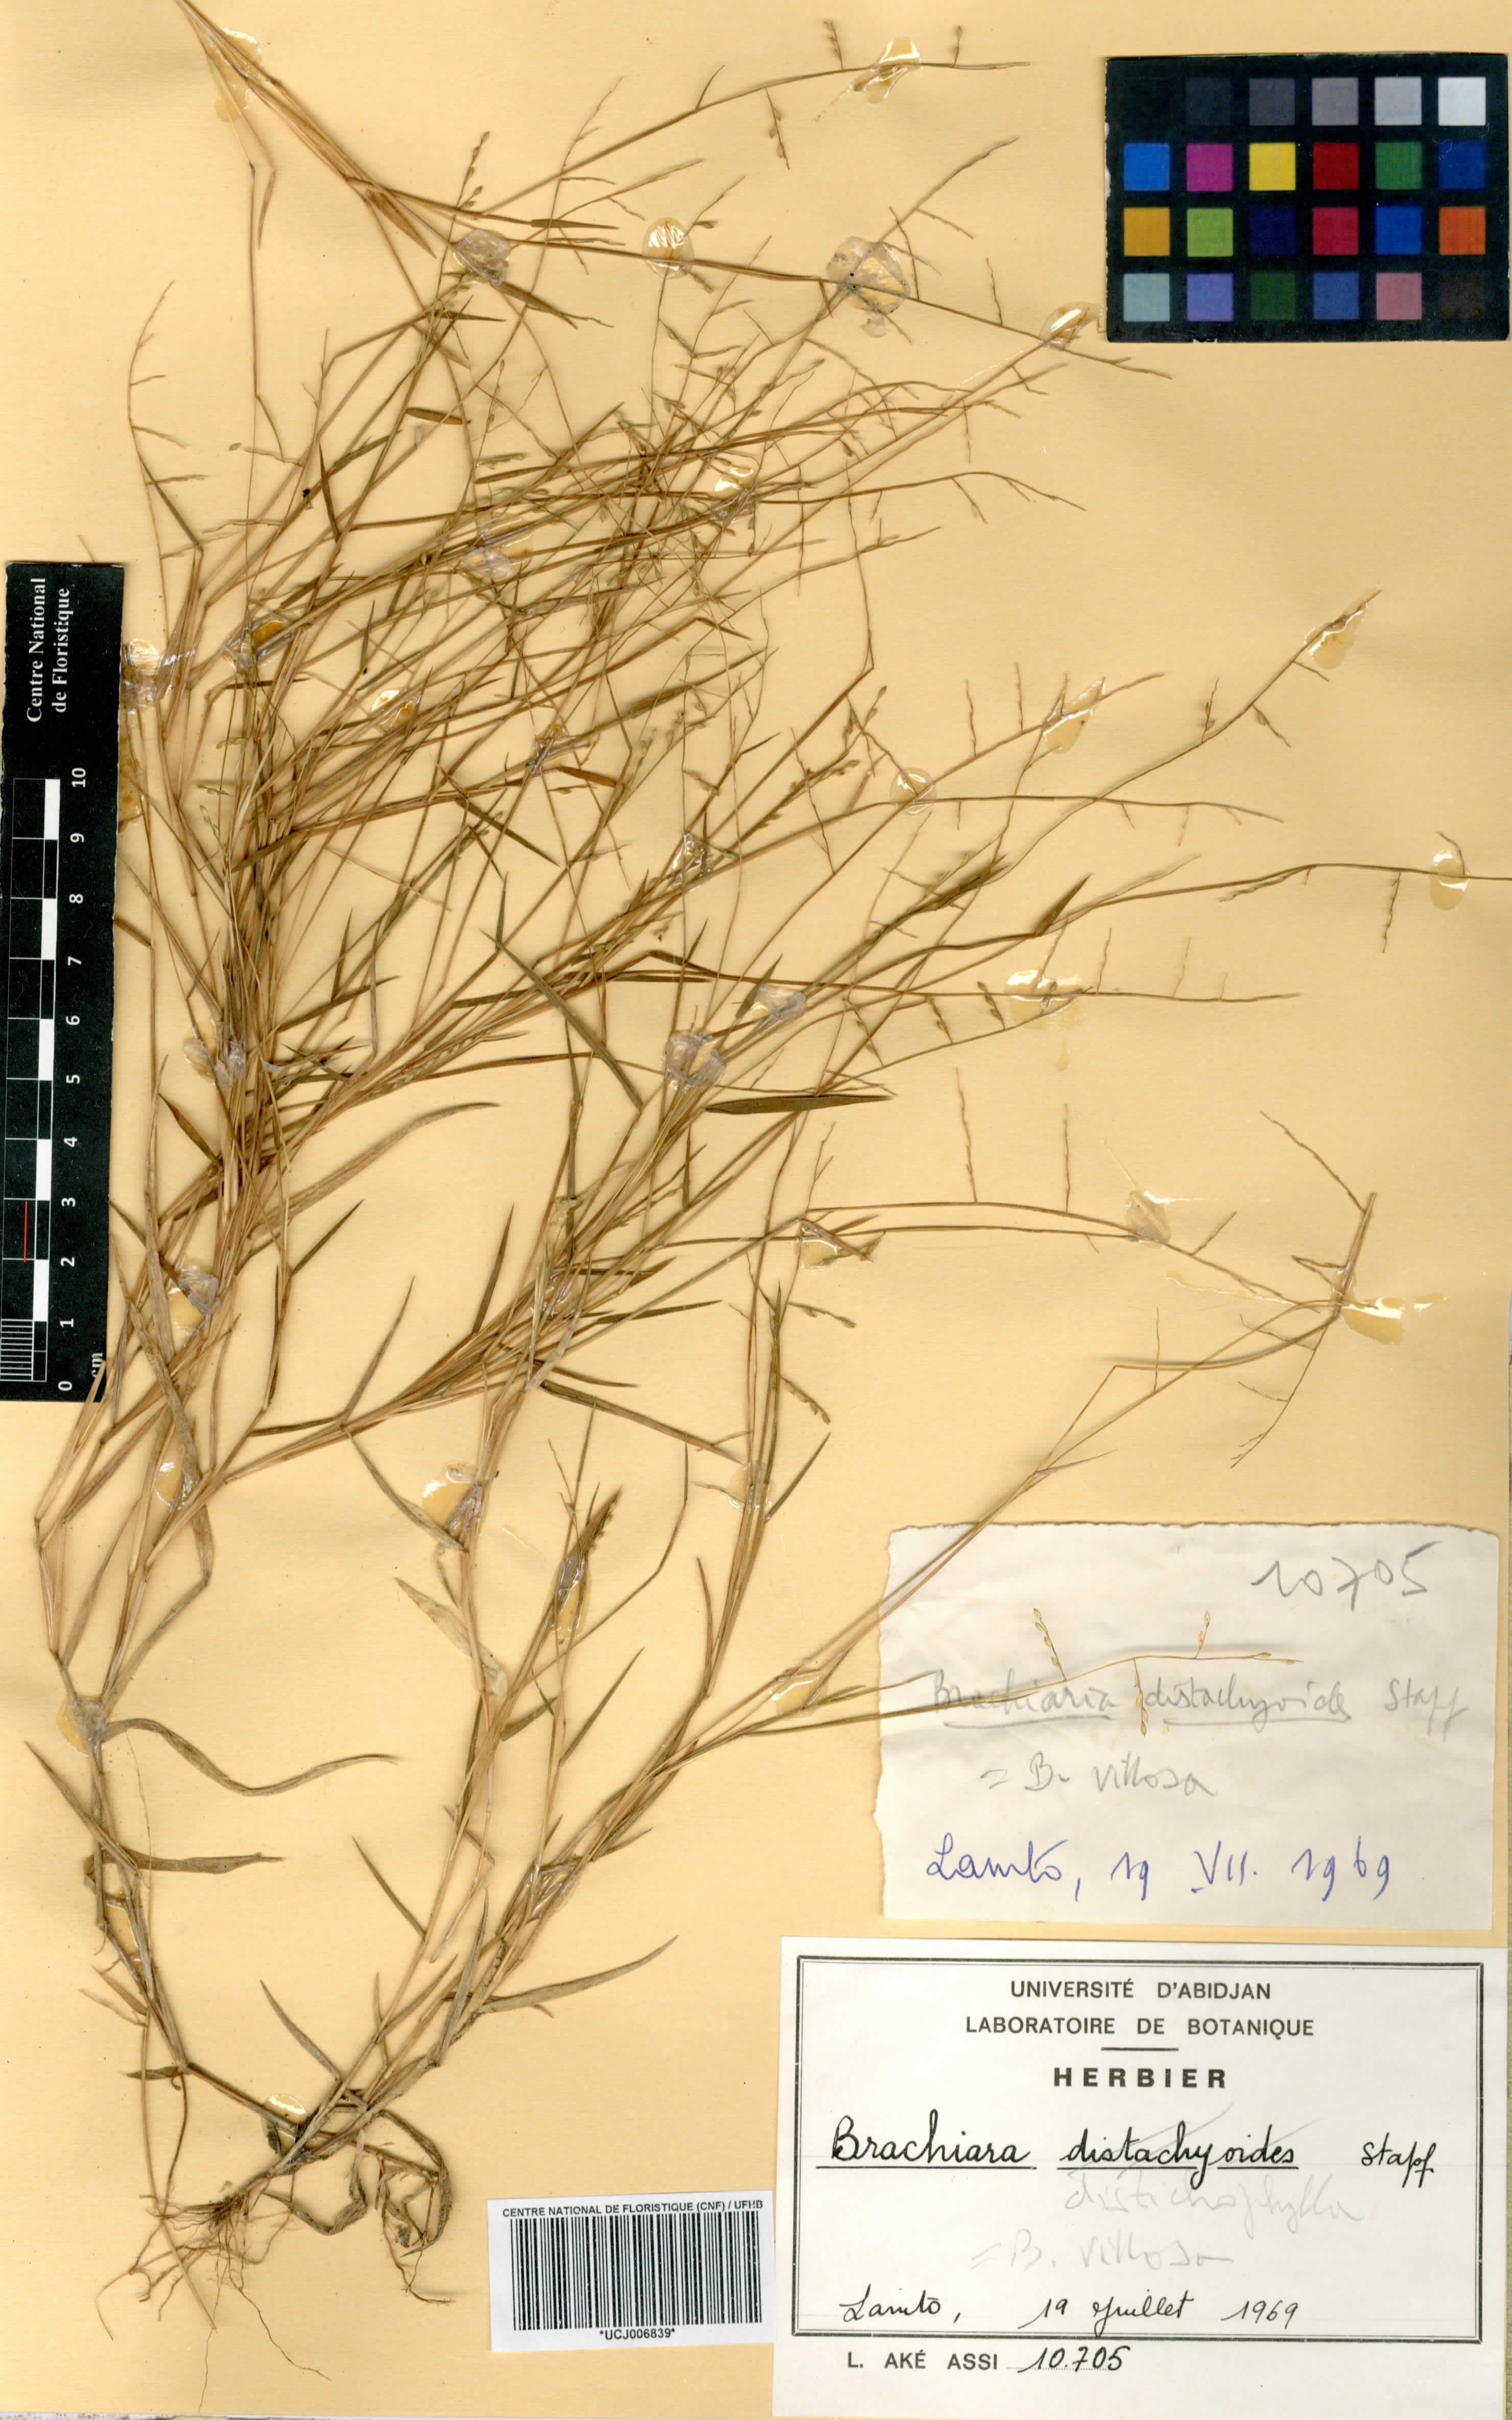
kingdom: Plantae
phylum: Tracheophyta
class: Liliopsida
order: Poales
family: Poaceae
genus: Urochloa
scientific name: Urochloa villosa
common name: Hairy signalgrass
